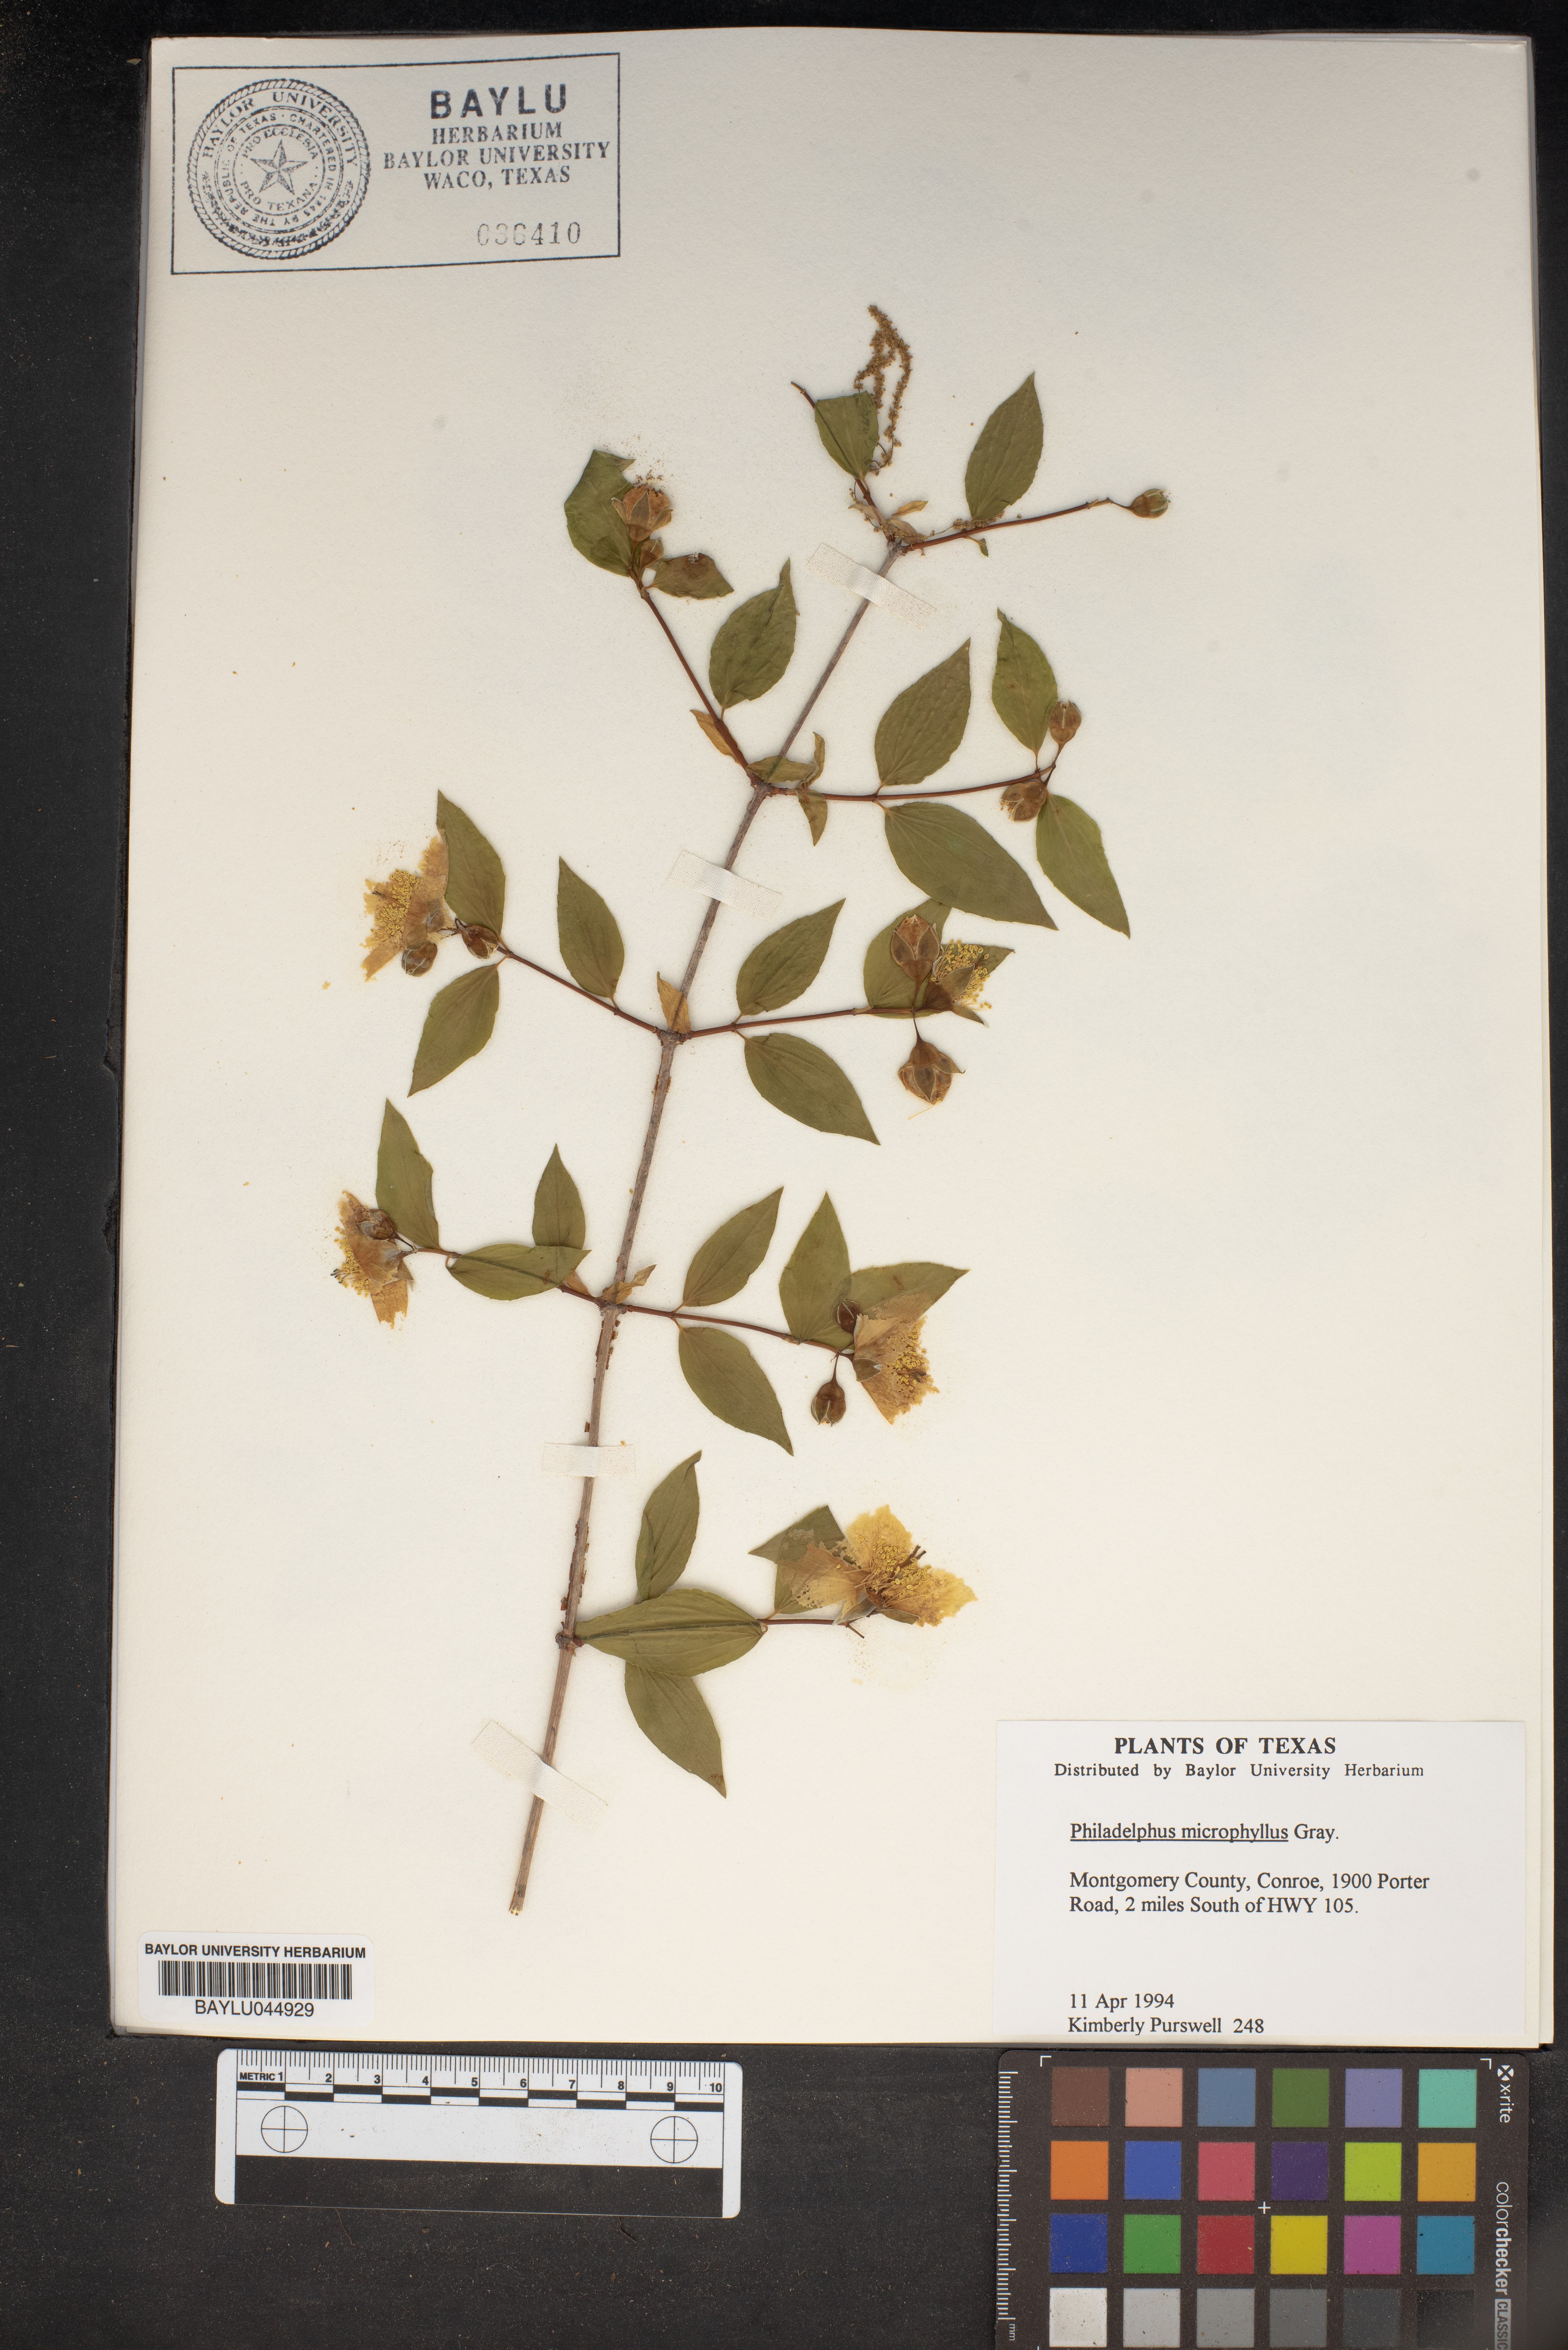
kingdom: Plantae
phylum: Tracheophyta
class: Magnoliopsida
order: Cornales
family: Hydrangeaceae
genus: Philadelphus
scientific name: Philadelphus microphyllus
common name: Desert mock orange
